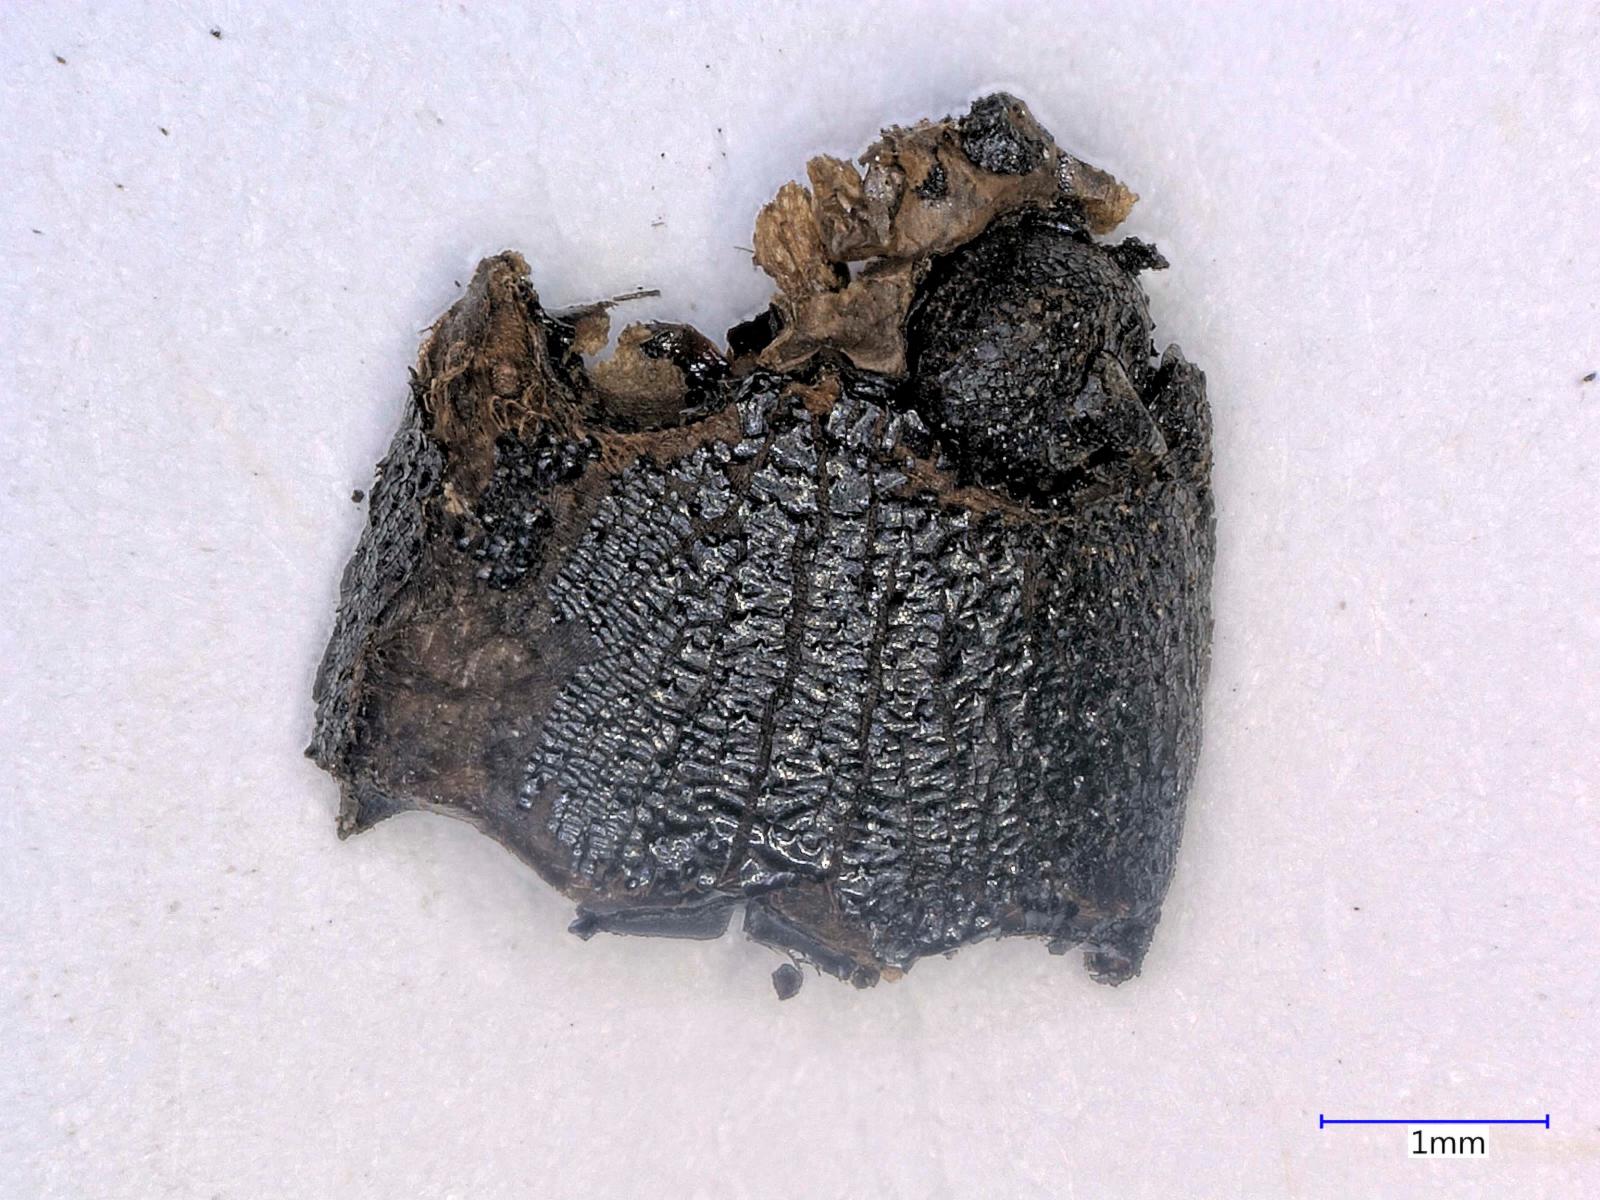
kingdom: Animalia
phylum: Arthropoda
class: Insecta
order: Coleoptera
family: Carabidae
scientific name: Carabidae
